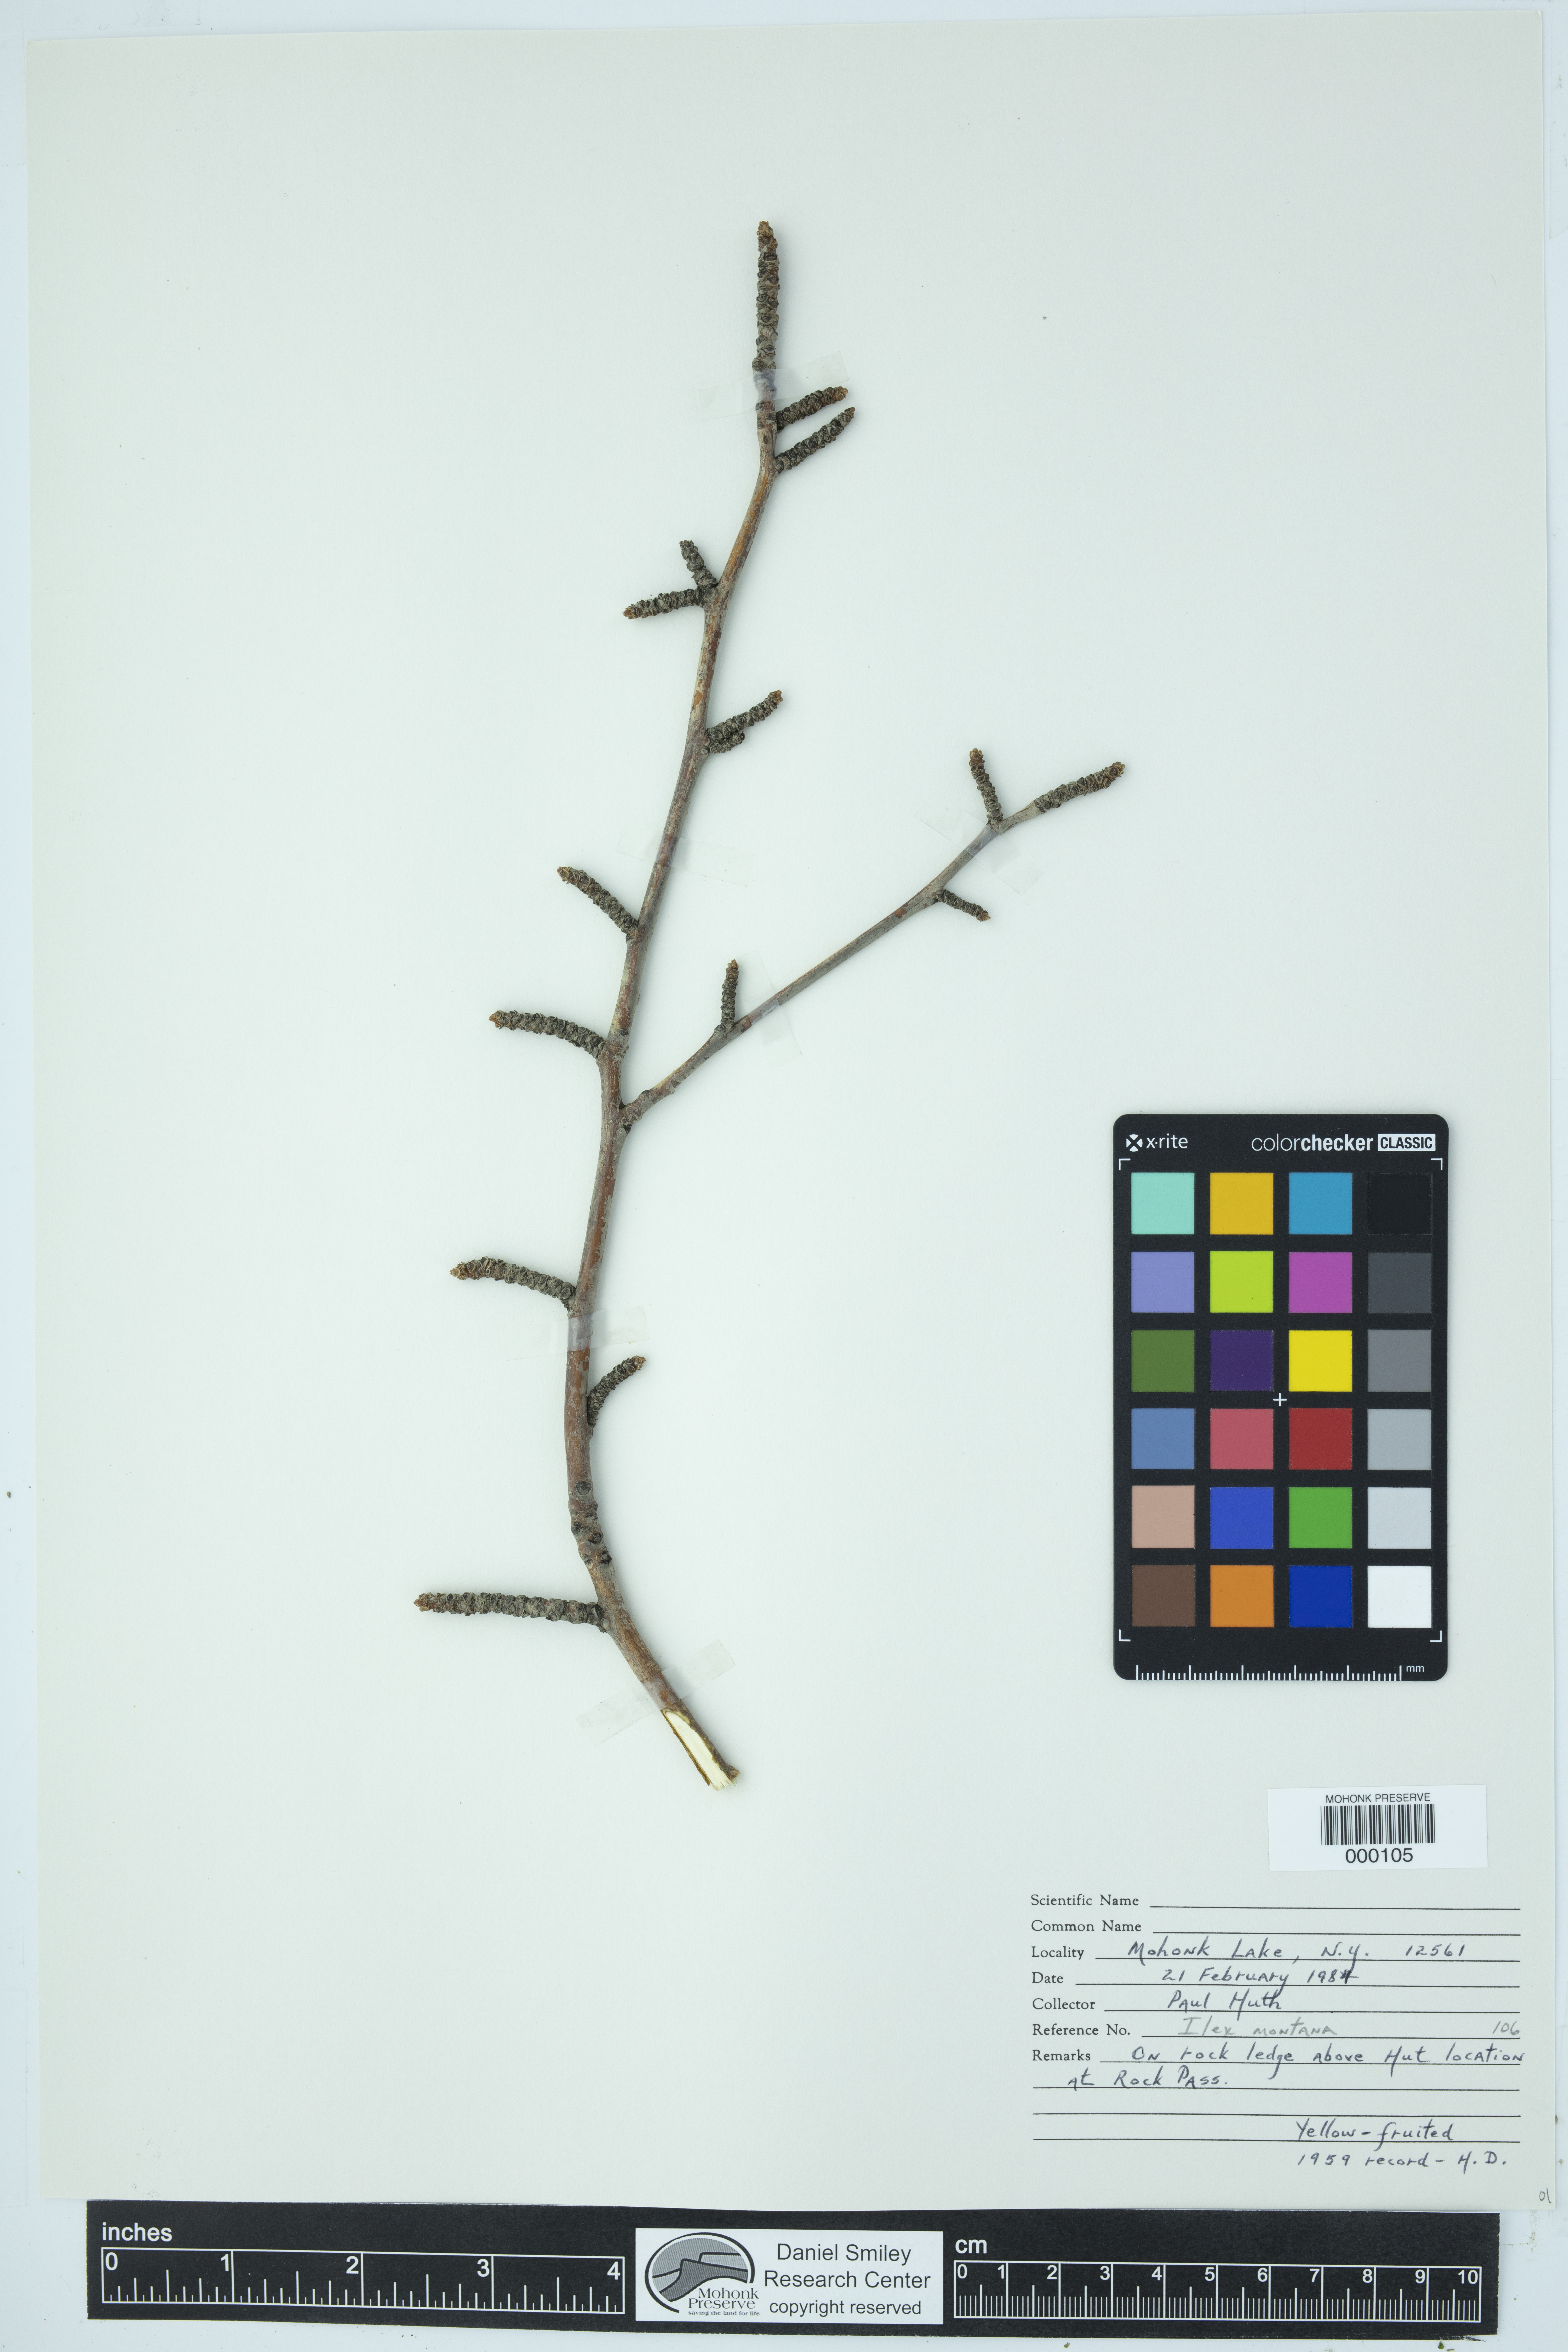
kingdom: Plantae
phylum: Tracheophyta
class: Magnoliopsida
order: Aquifoliales
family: Aquifoliaceae
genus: Ilex
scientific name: Ilex montana
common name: Mountain winterberry
